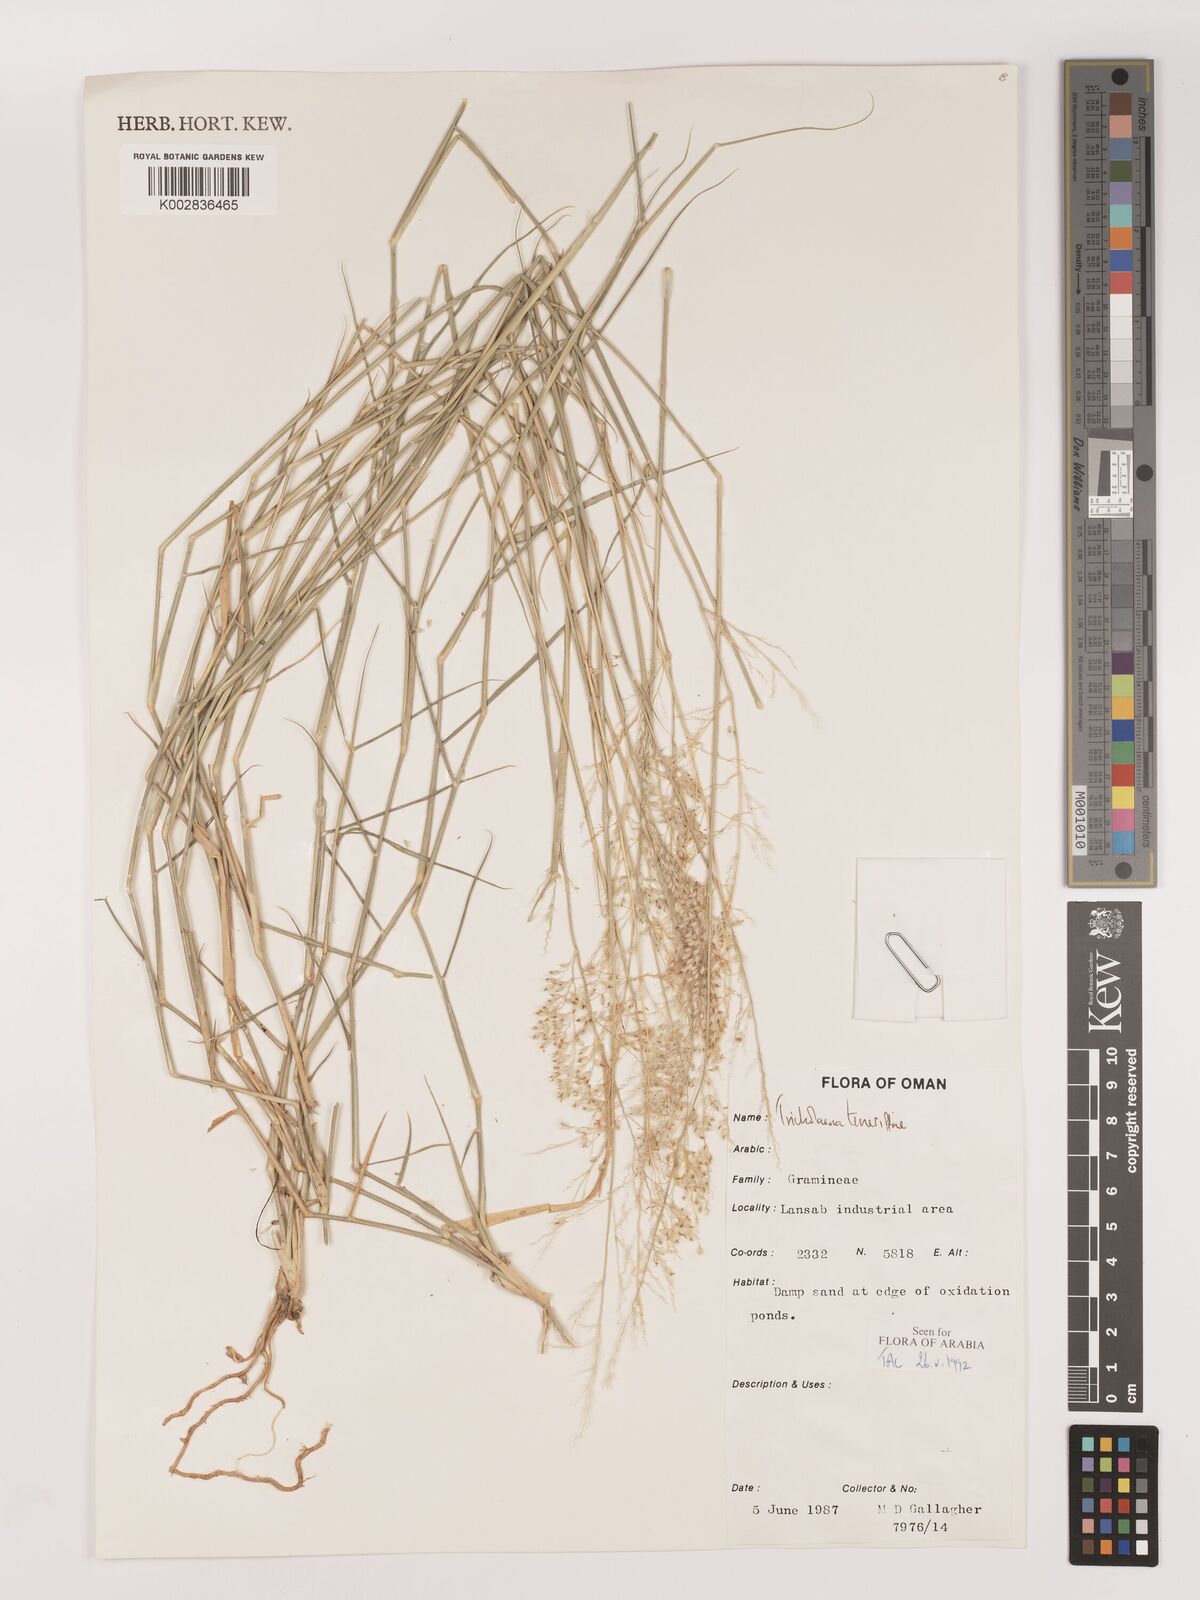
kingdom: Plantae
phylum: Tracheophyta
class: Liliopsida
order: Poales
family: Poaceae
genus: Tricholaena
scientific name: Tricholaena teneriffae
